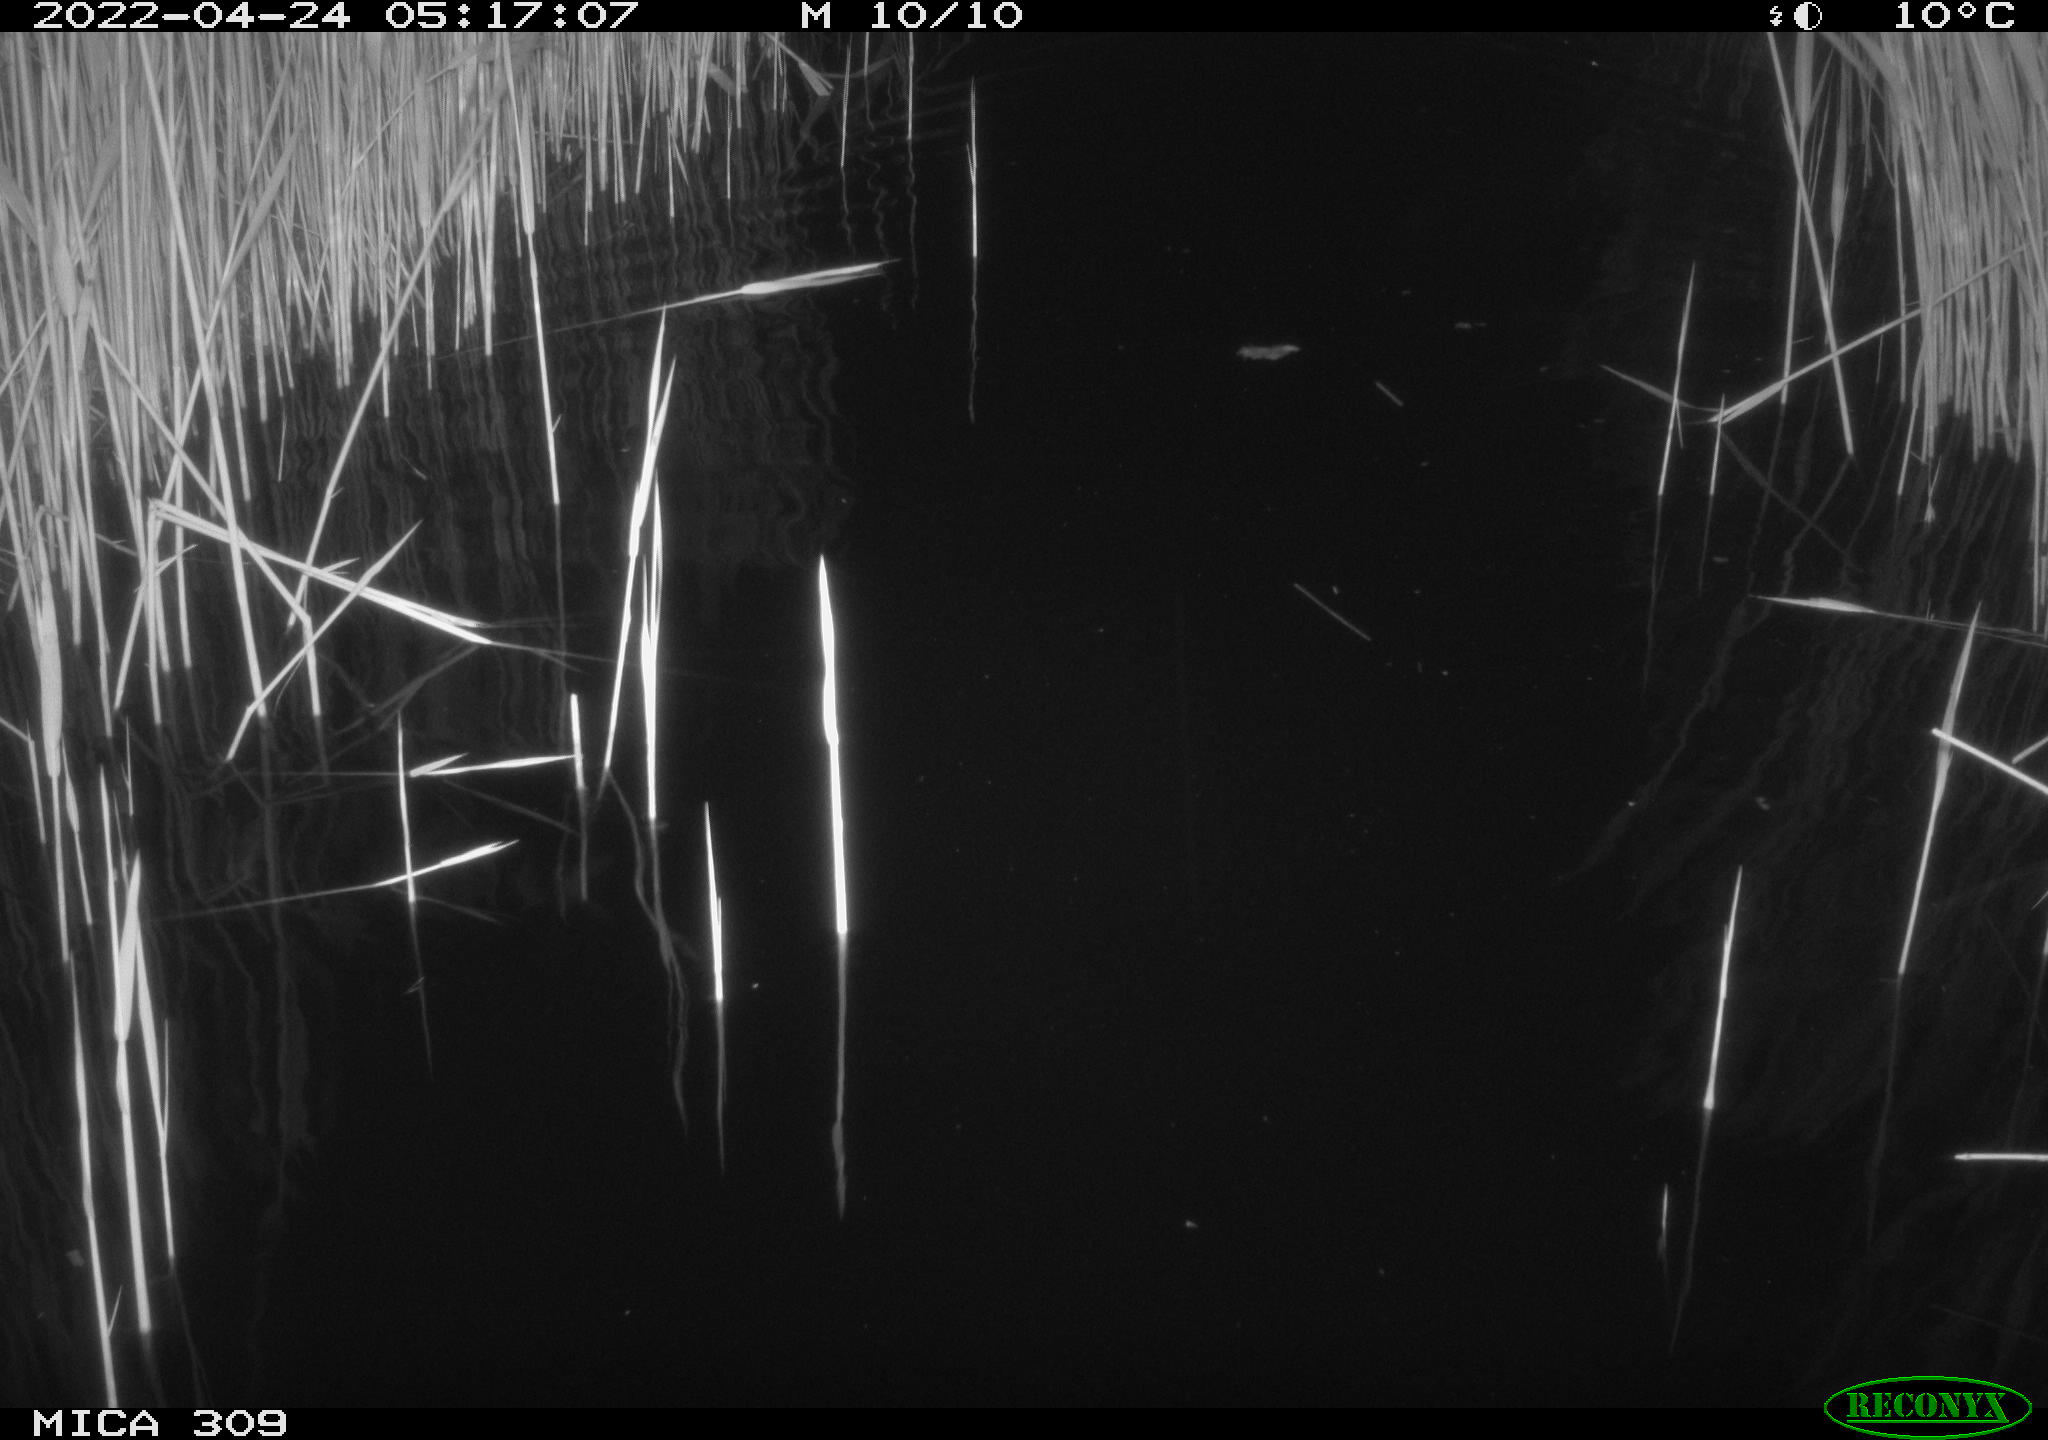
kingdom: Animalia
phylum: Chordata
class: Aves
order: Anseriformes
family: Anatidae
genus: Anas
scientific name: Anas platyrhynchos
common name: Mallard
